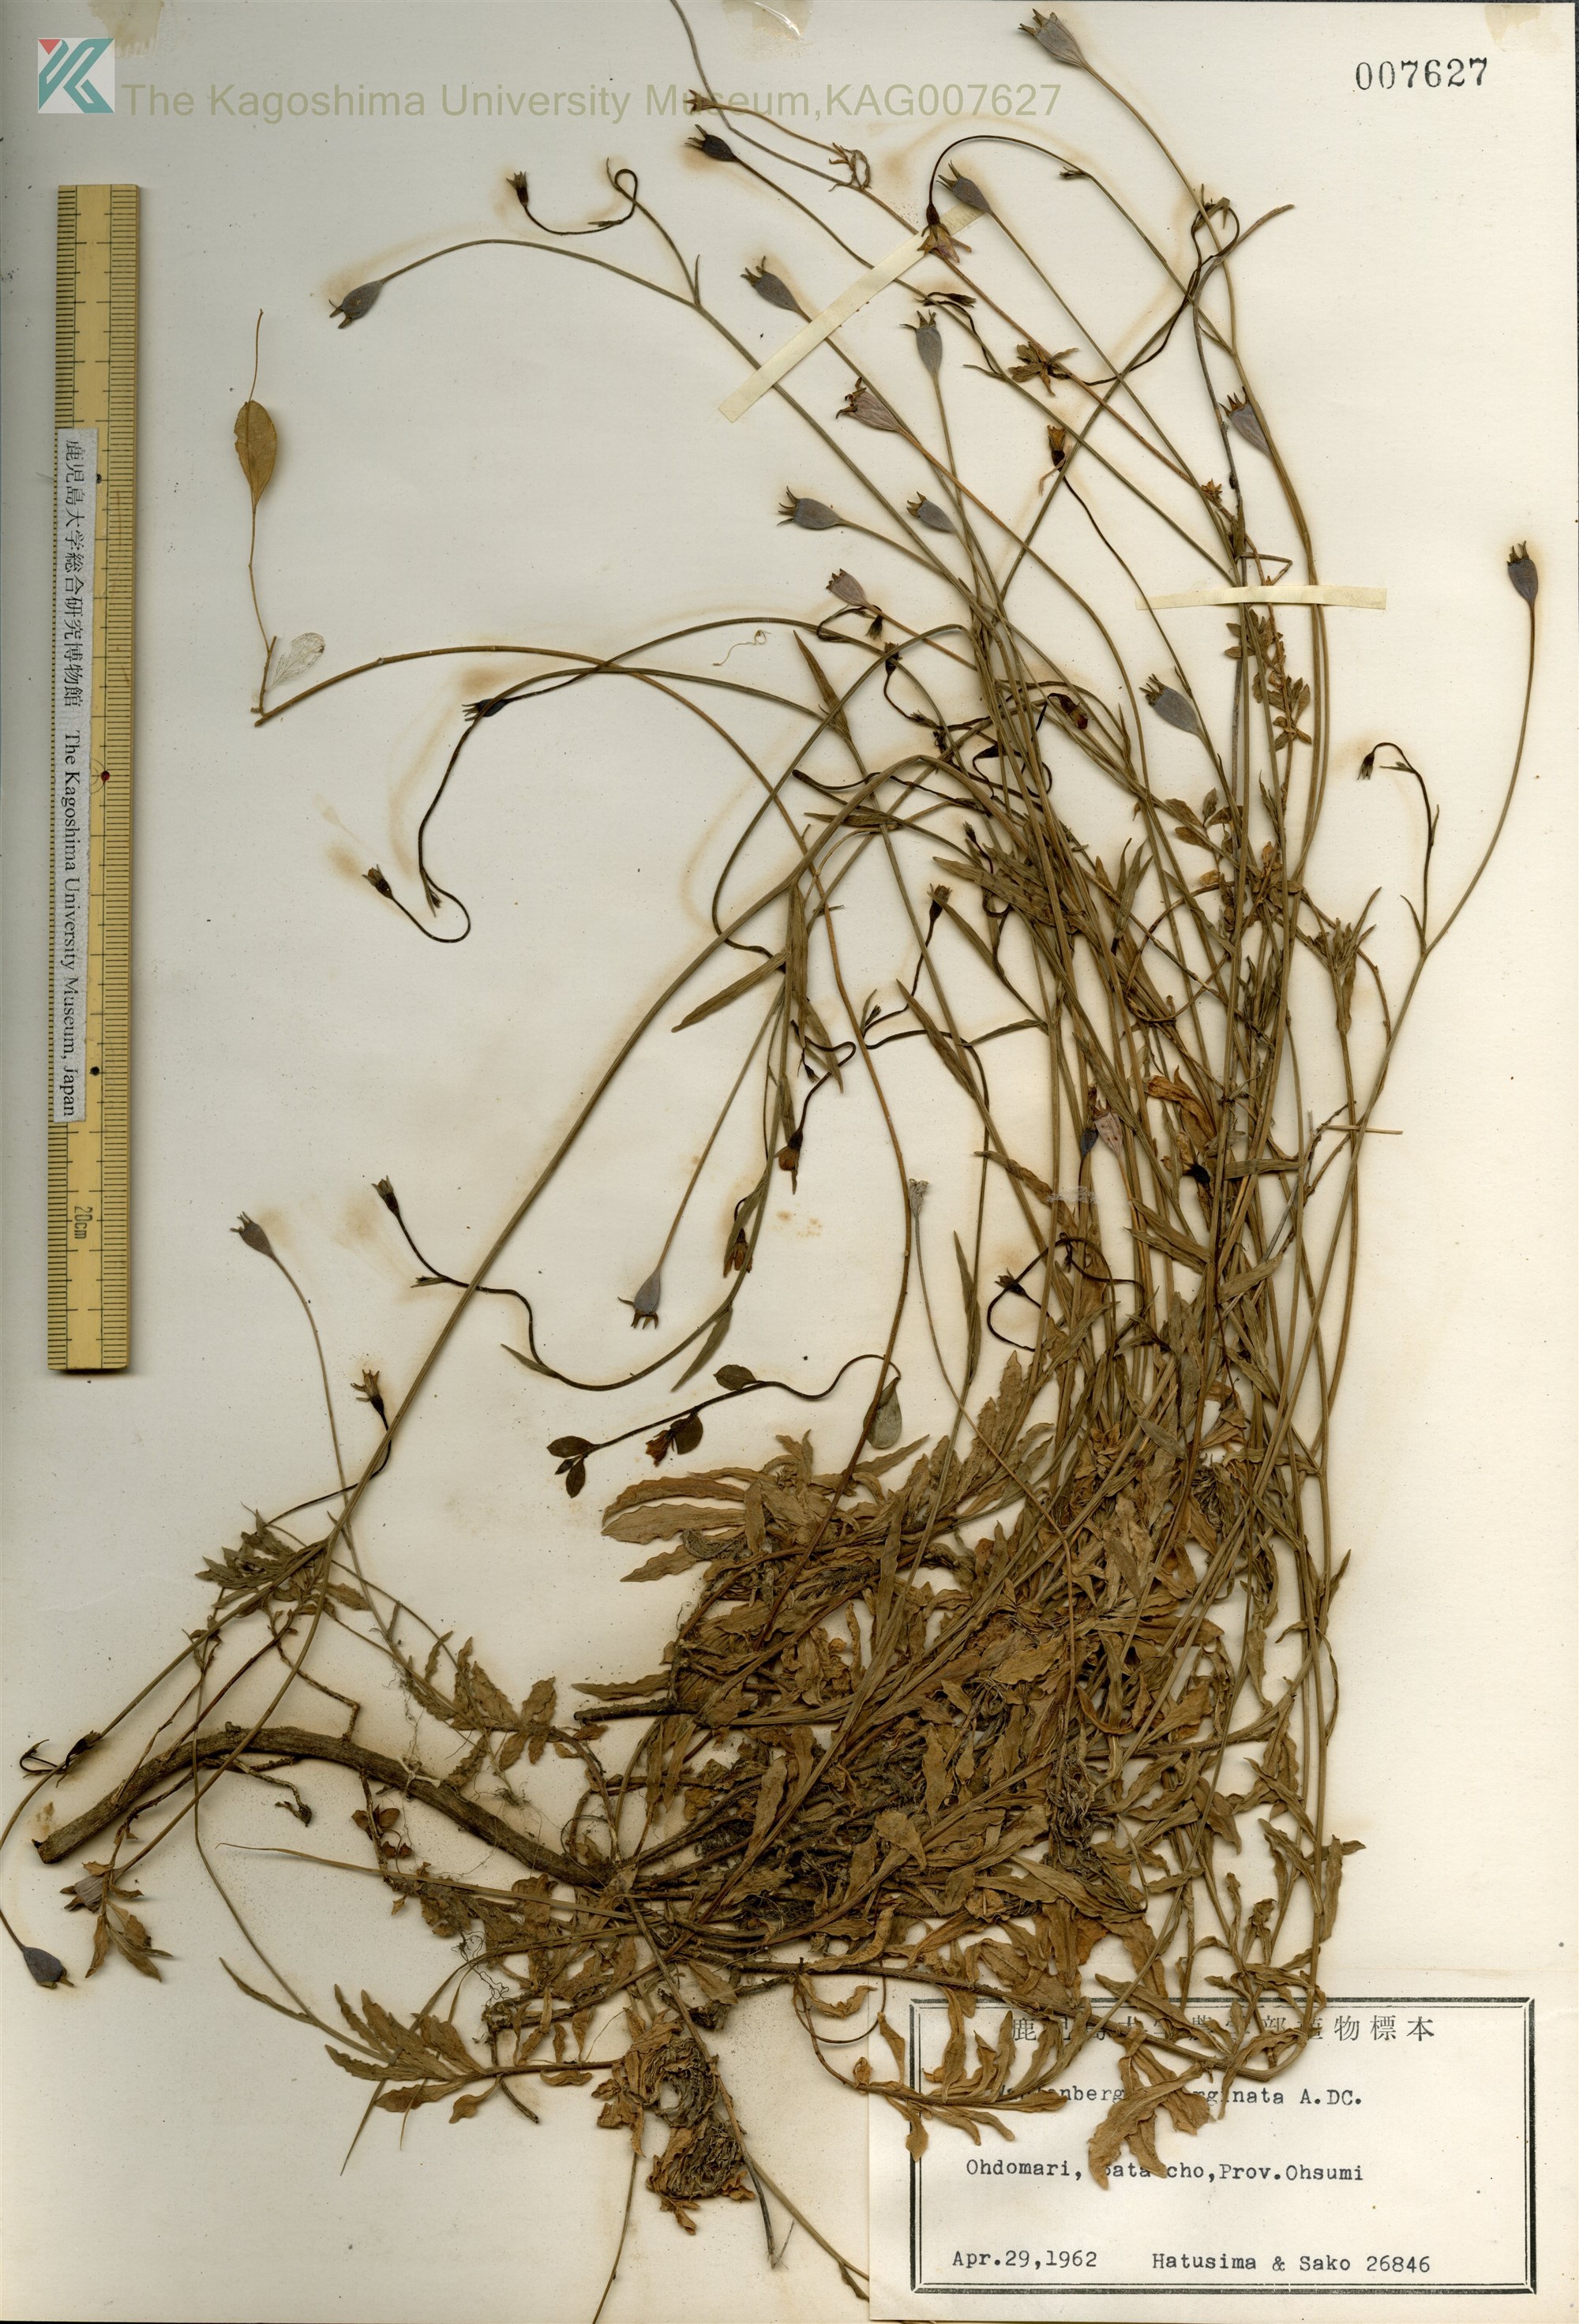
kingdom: Plantae
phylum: Tracheophyta
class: Magnoliopsida
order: Asterales
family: Campanulaceae
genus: Wahlenbergia
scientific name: Wahlenbergia marginata
